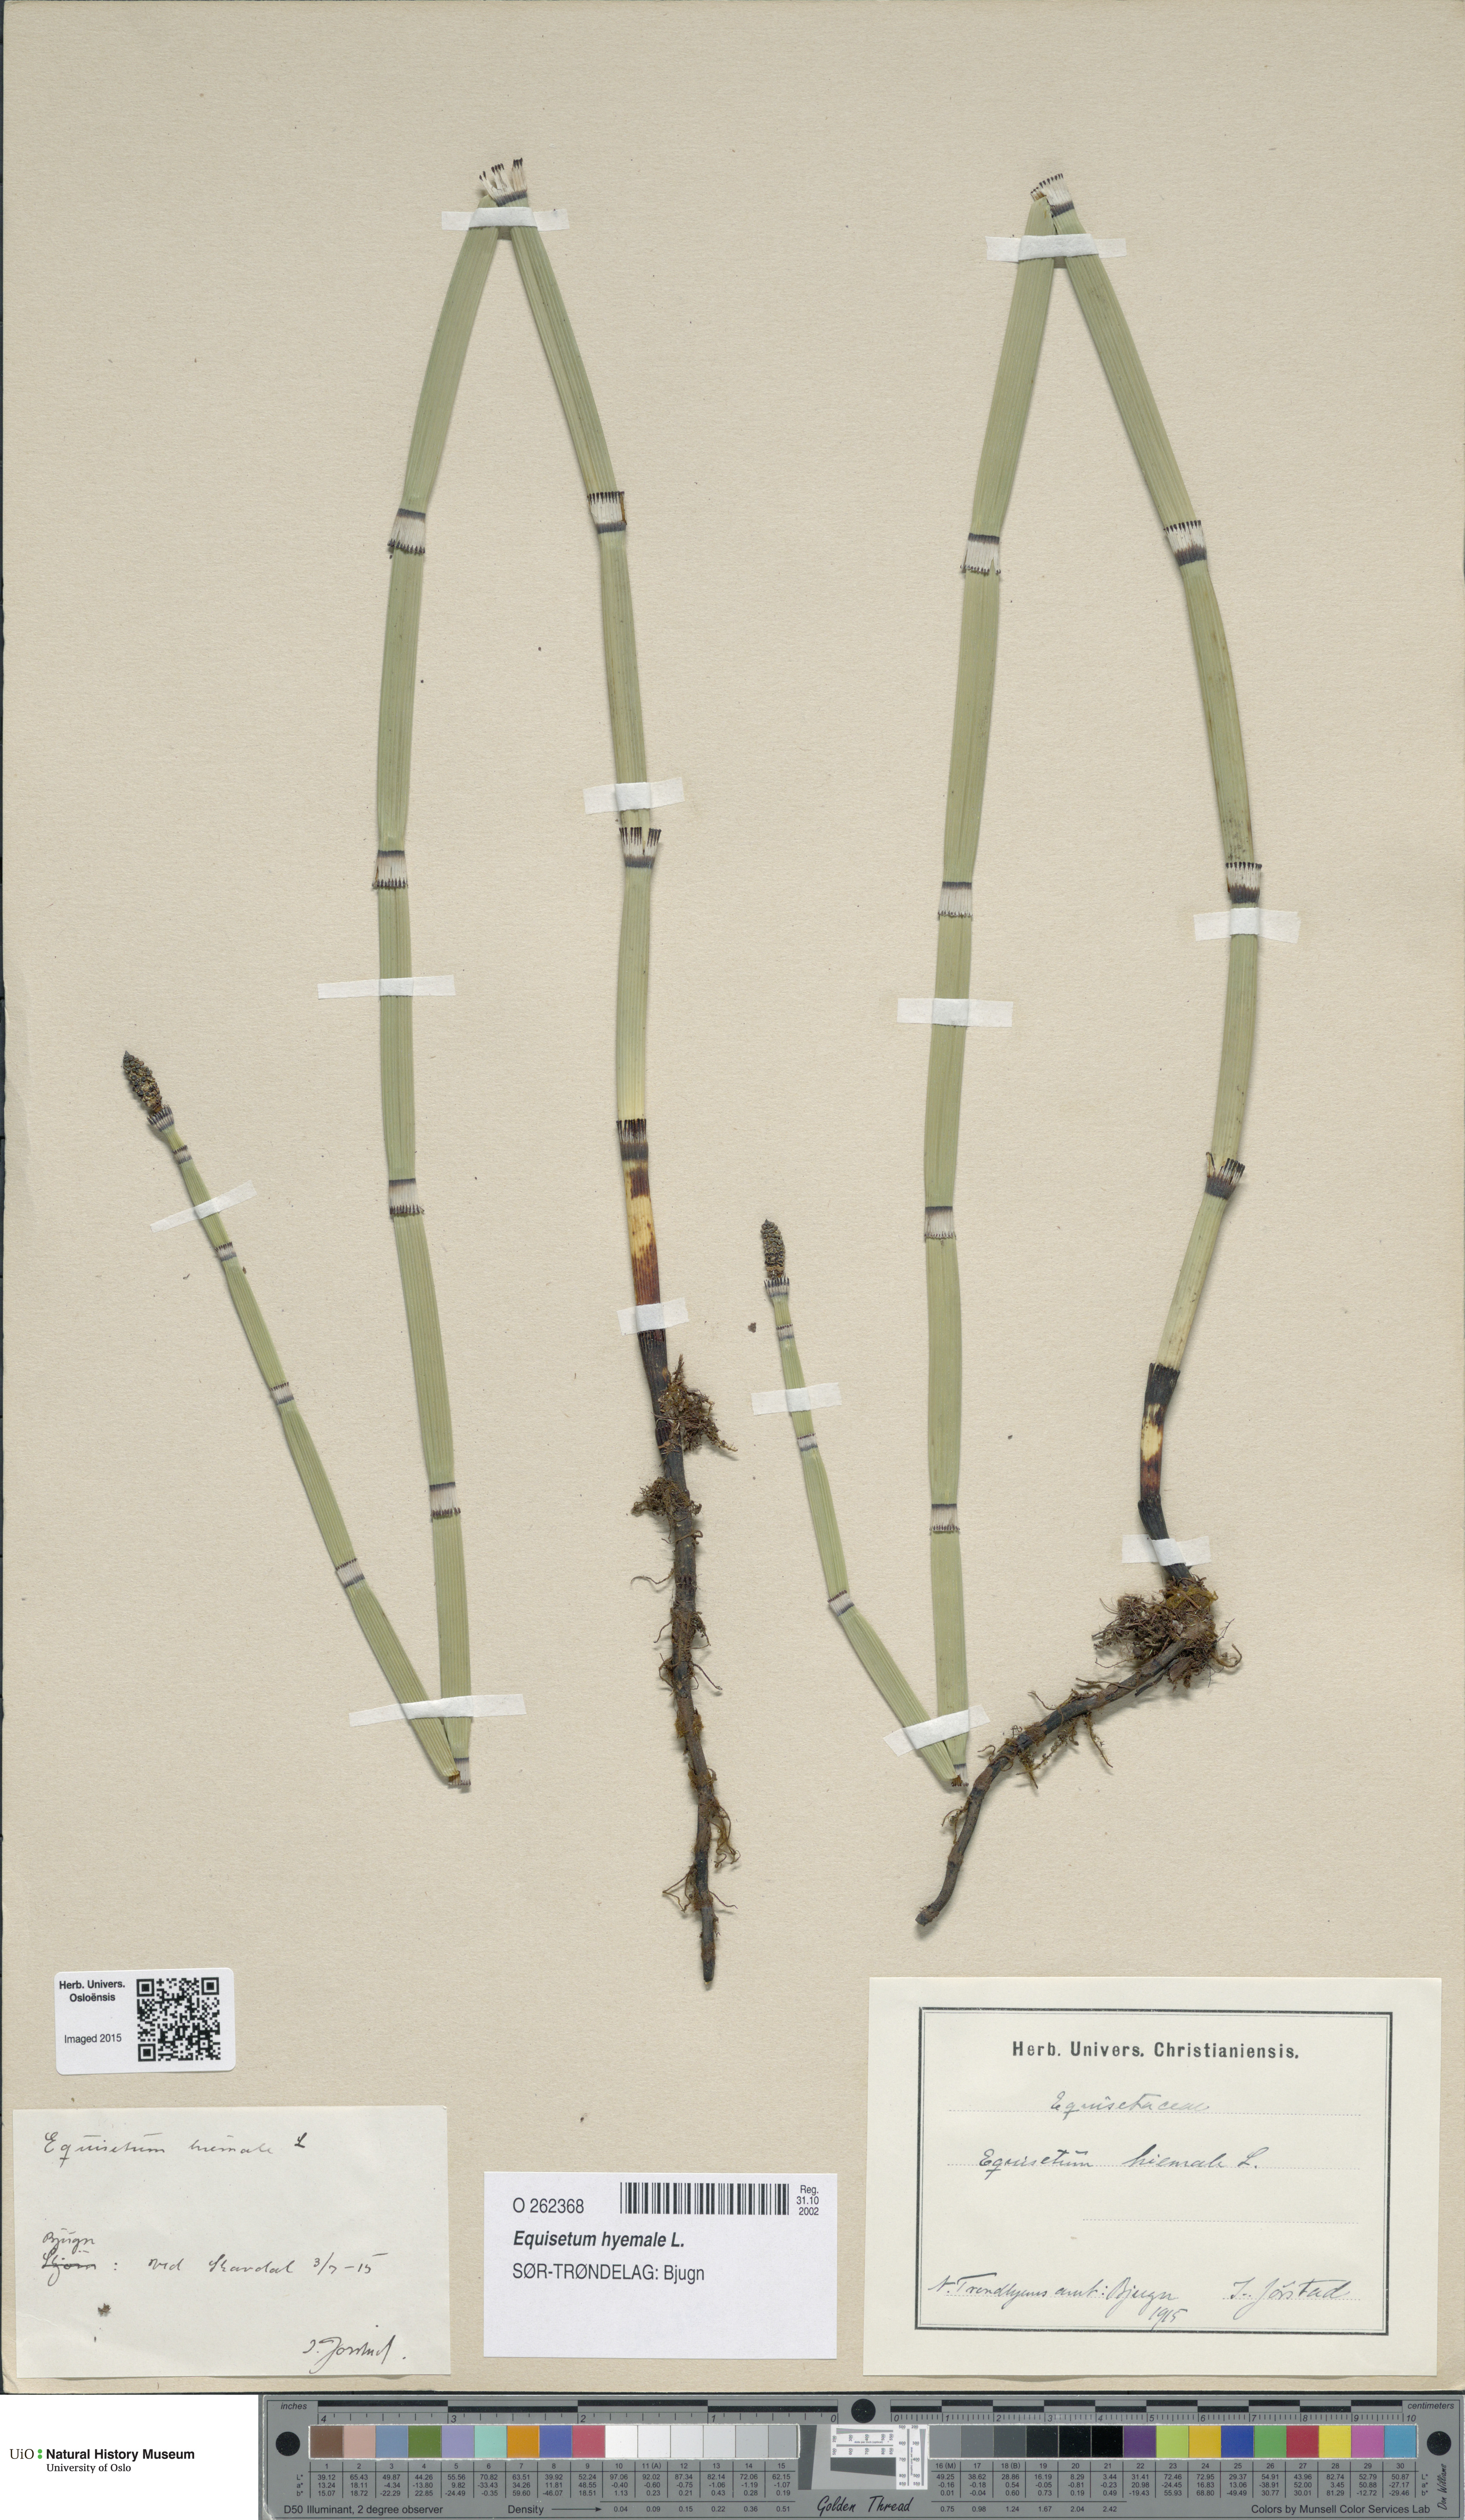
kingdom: Plantae
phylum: Tracheophyta
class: Polypodiopsida
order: Equisetales
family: Equisetaceae
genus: Equisetum
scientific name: Equisetum hyemale
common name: Rough horsetail
